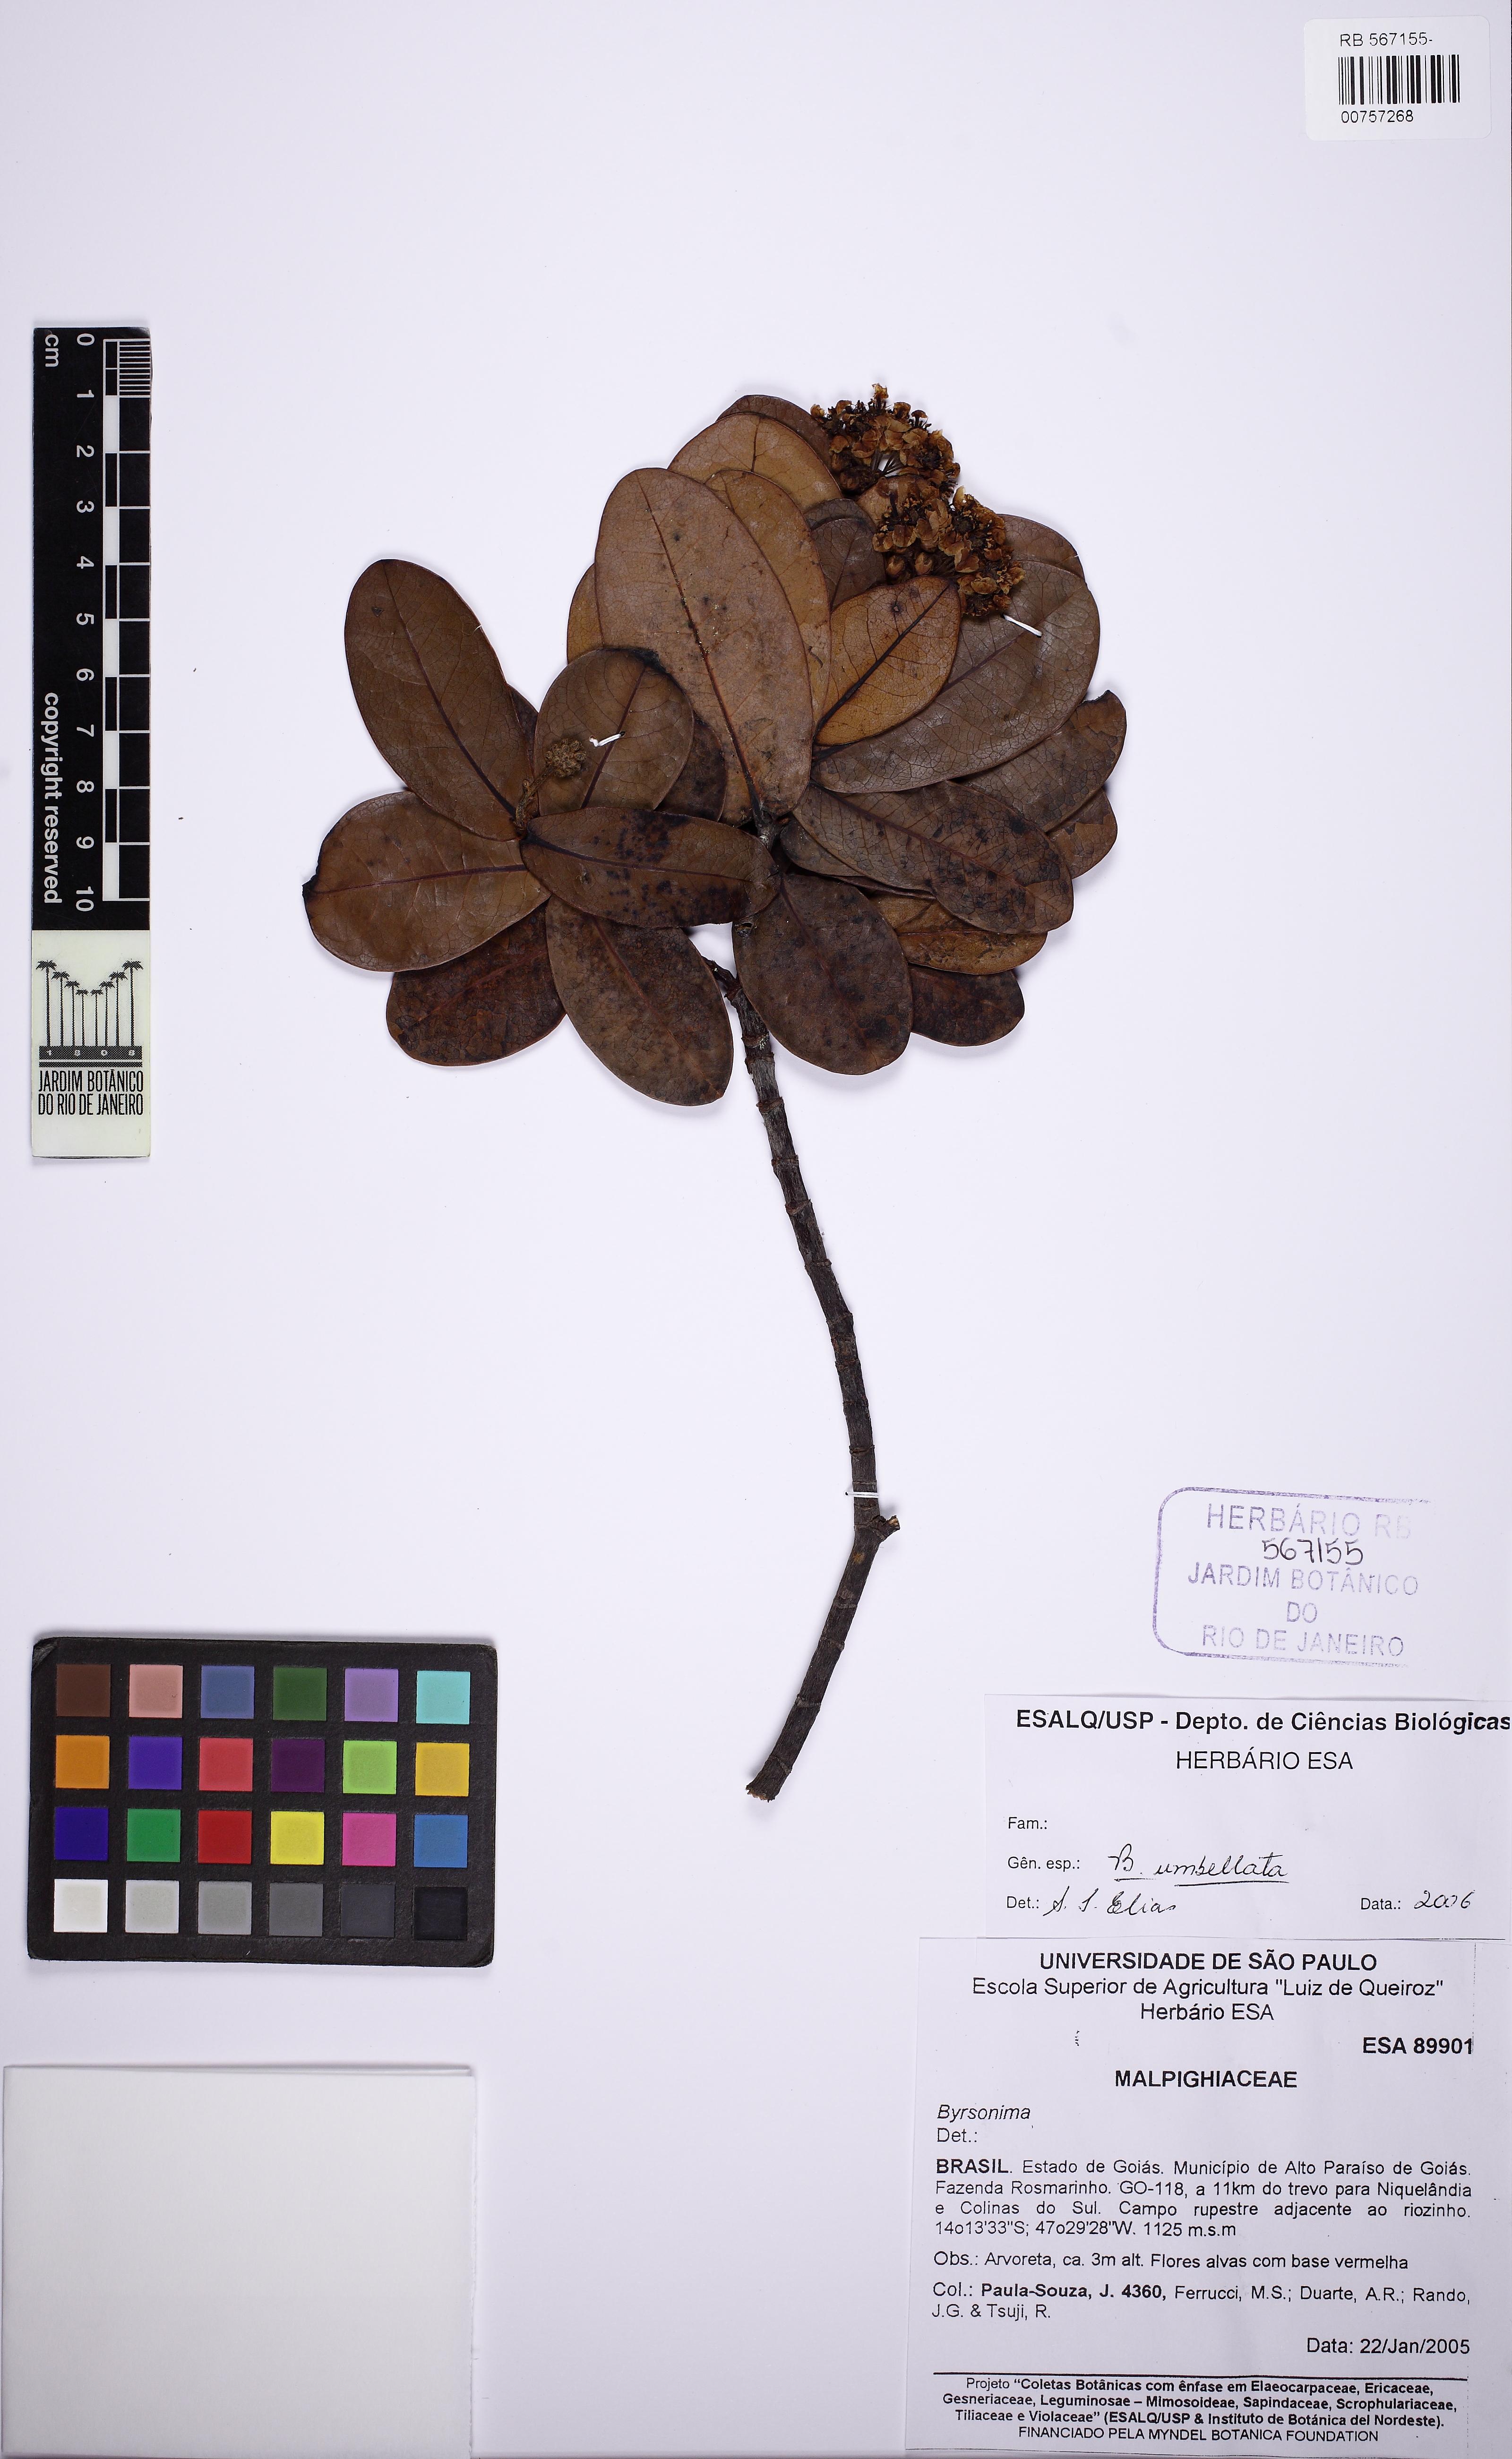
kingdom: Plantae
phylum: Tracheophyta
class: Magnoliopsida
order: Malpighiales
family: Malpighiaceae
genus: Byrsonima
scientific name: Byrsonima umbellata
